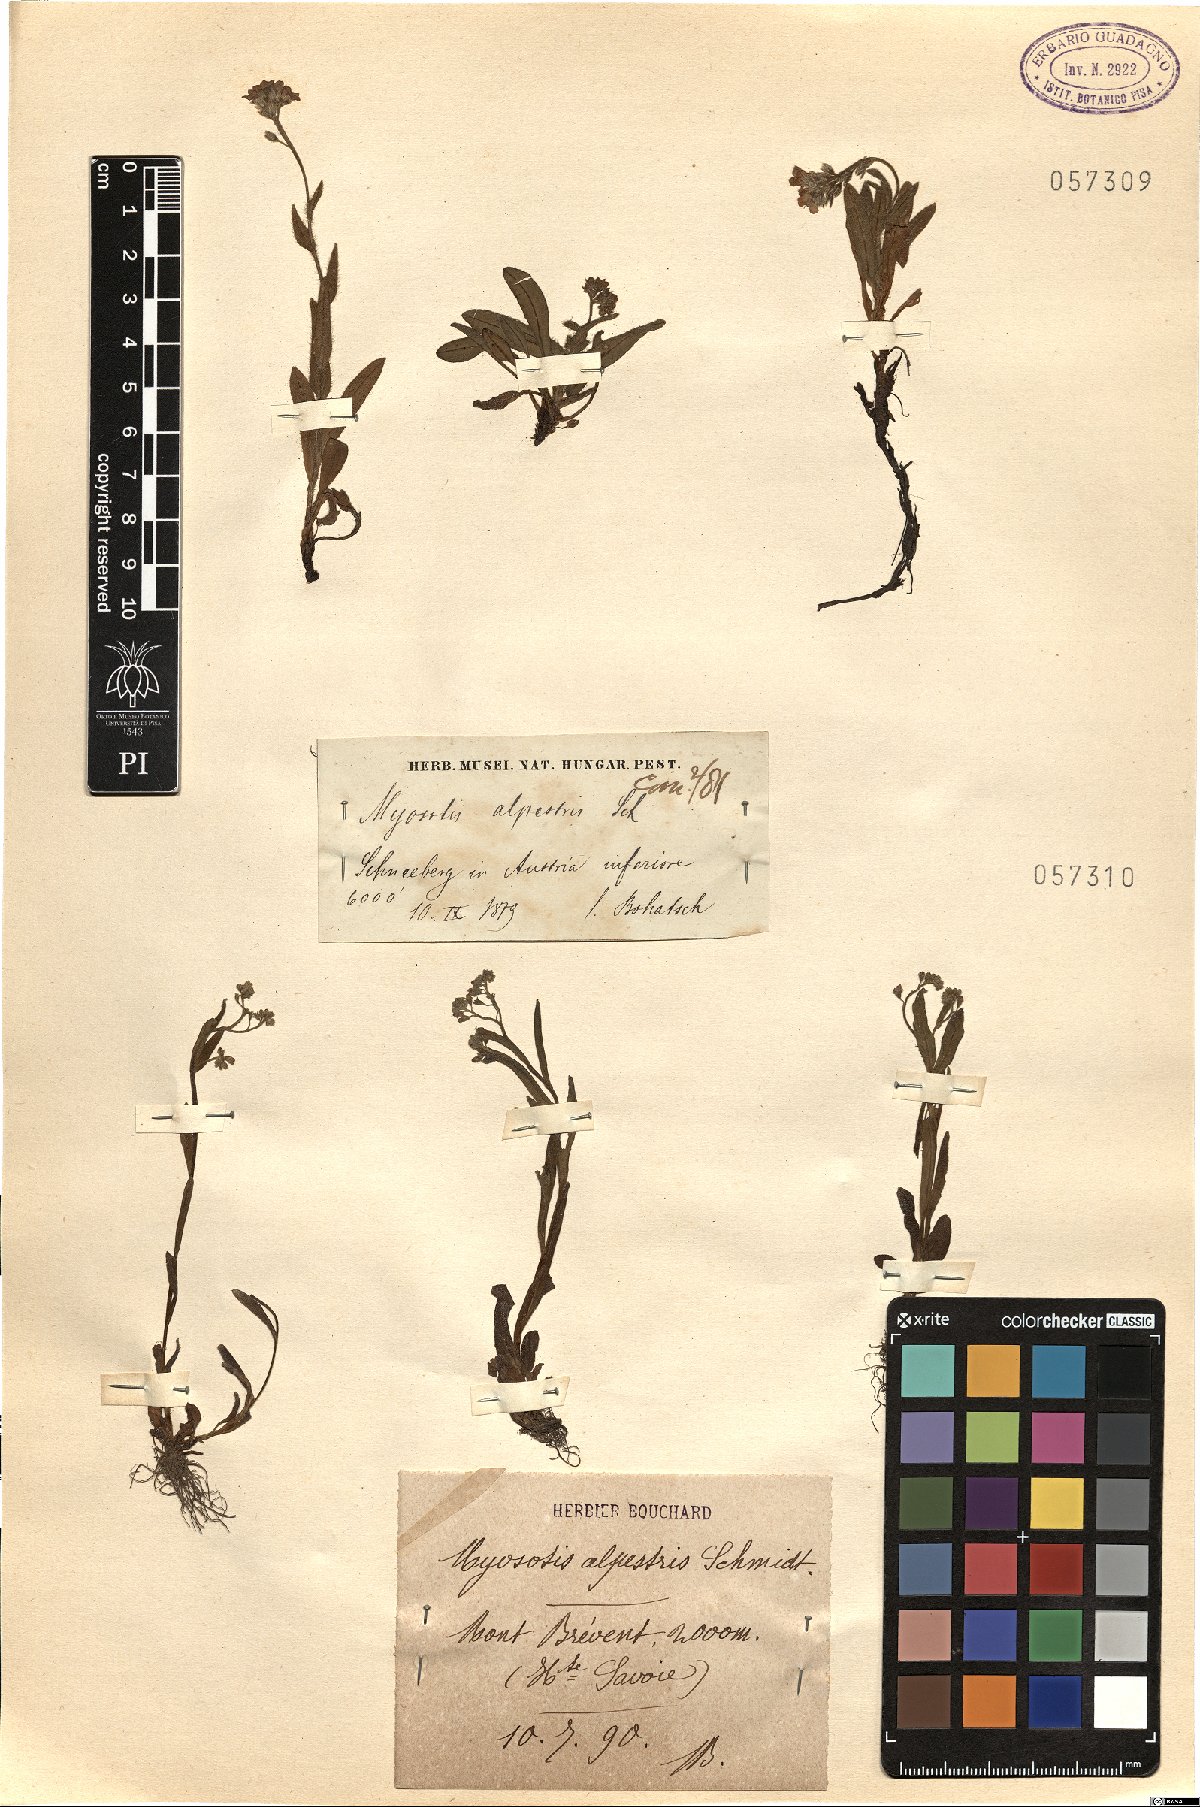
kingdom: Plantae
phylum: Tracheophyta
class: Magnoliopsida
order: Boraginales
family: Boraginaceae
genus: Myosotis
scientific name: Myosotis alpestris
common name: Alpine forget-me-not
